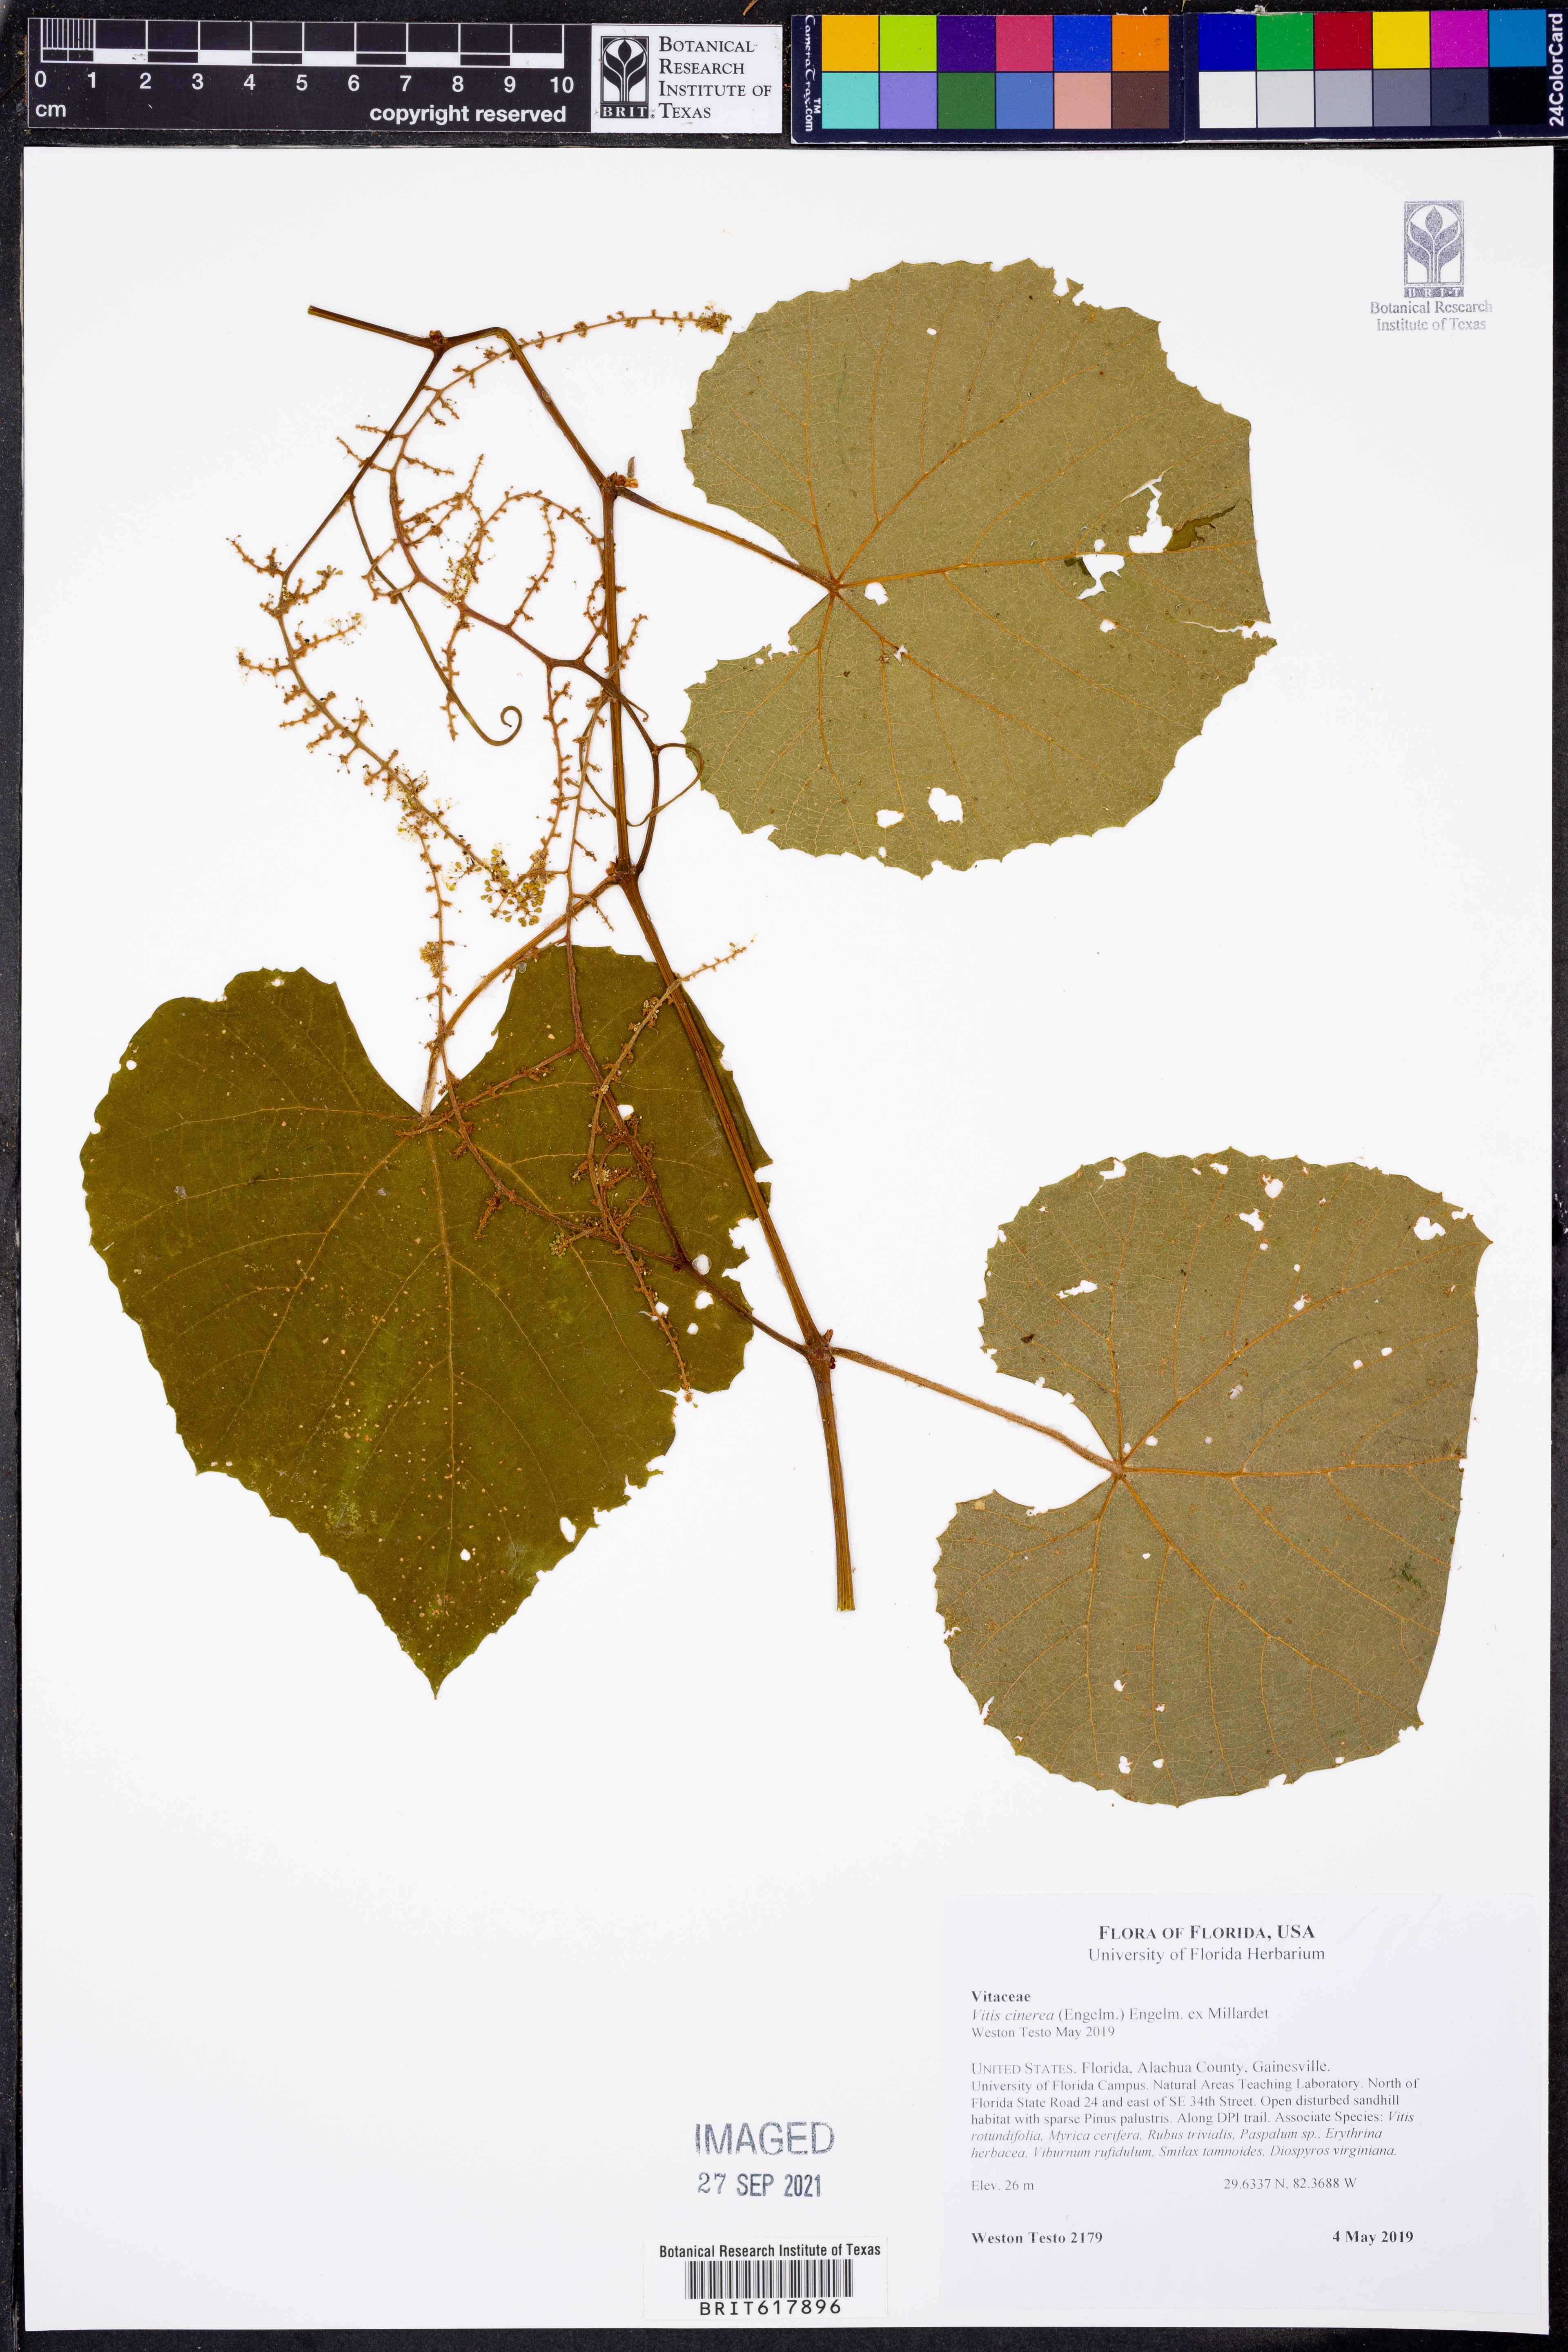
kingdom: Plantae
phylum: Tracheophyta
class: Magnoliopsida
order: Vitales
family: Vitaceae
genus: Vitis
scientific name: Vitis aestivalis
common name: Pigeon grape
